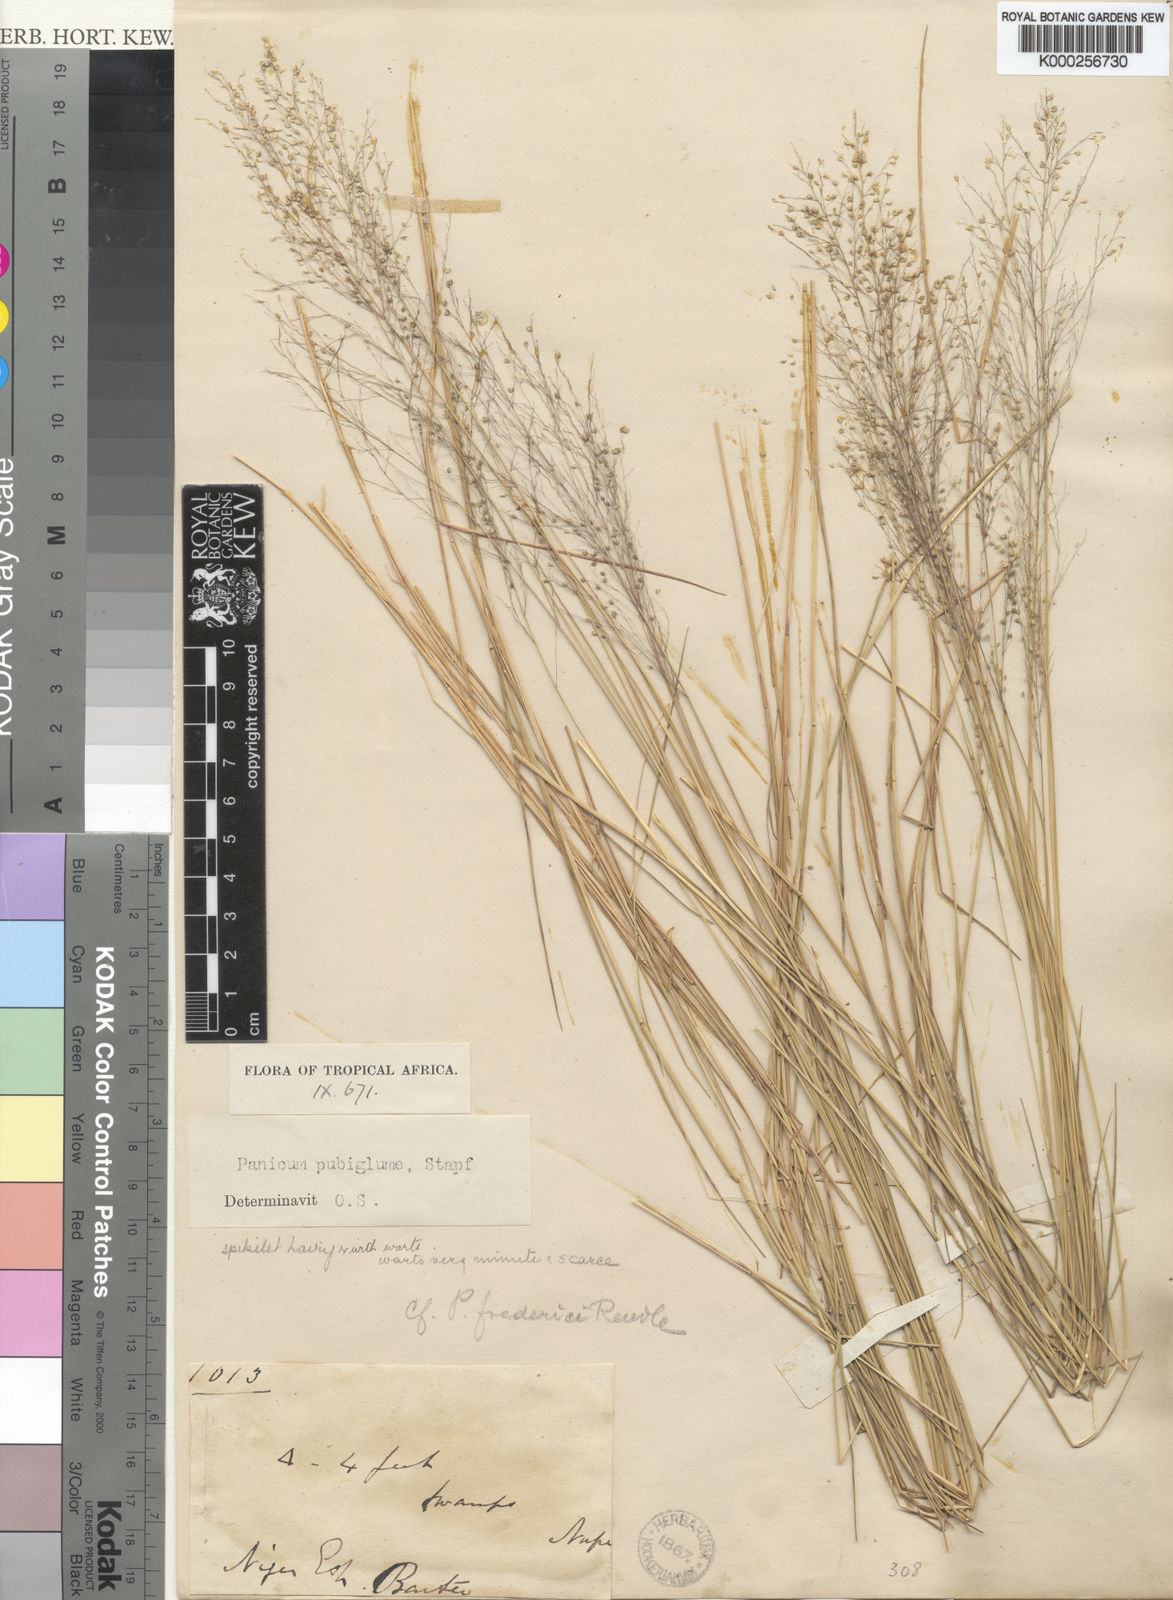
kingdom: Plantae
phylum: Tracheophyta
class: Liliopsida
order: Poales
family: Poaceae
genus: Trichanthecium
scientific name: Trichanthecium brazzavillense
